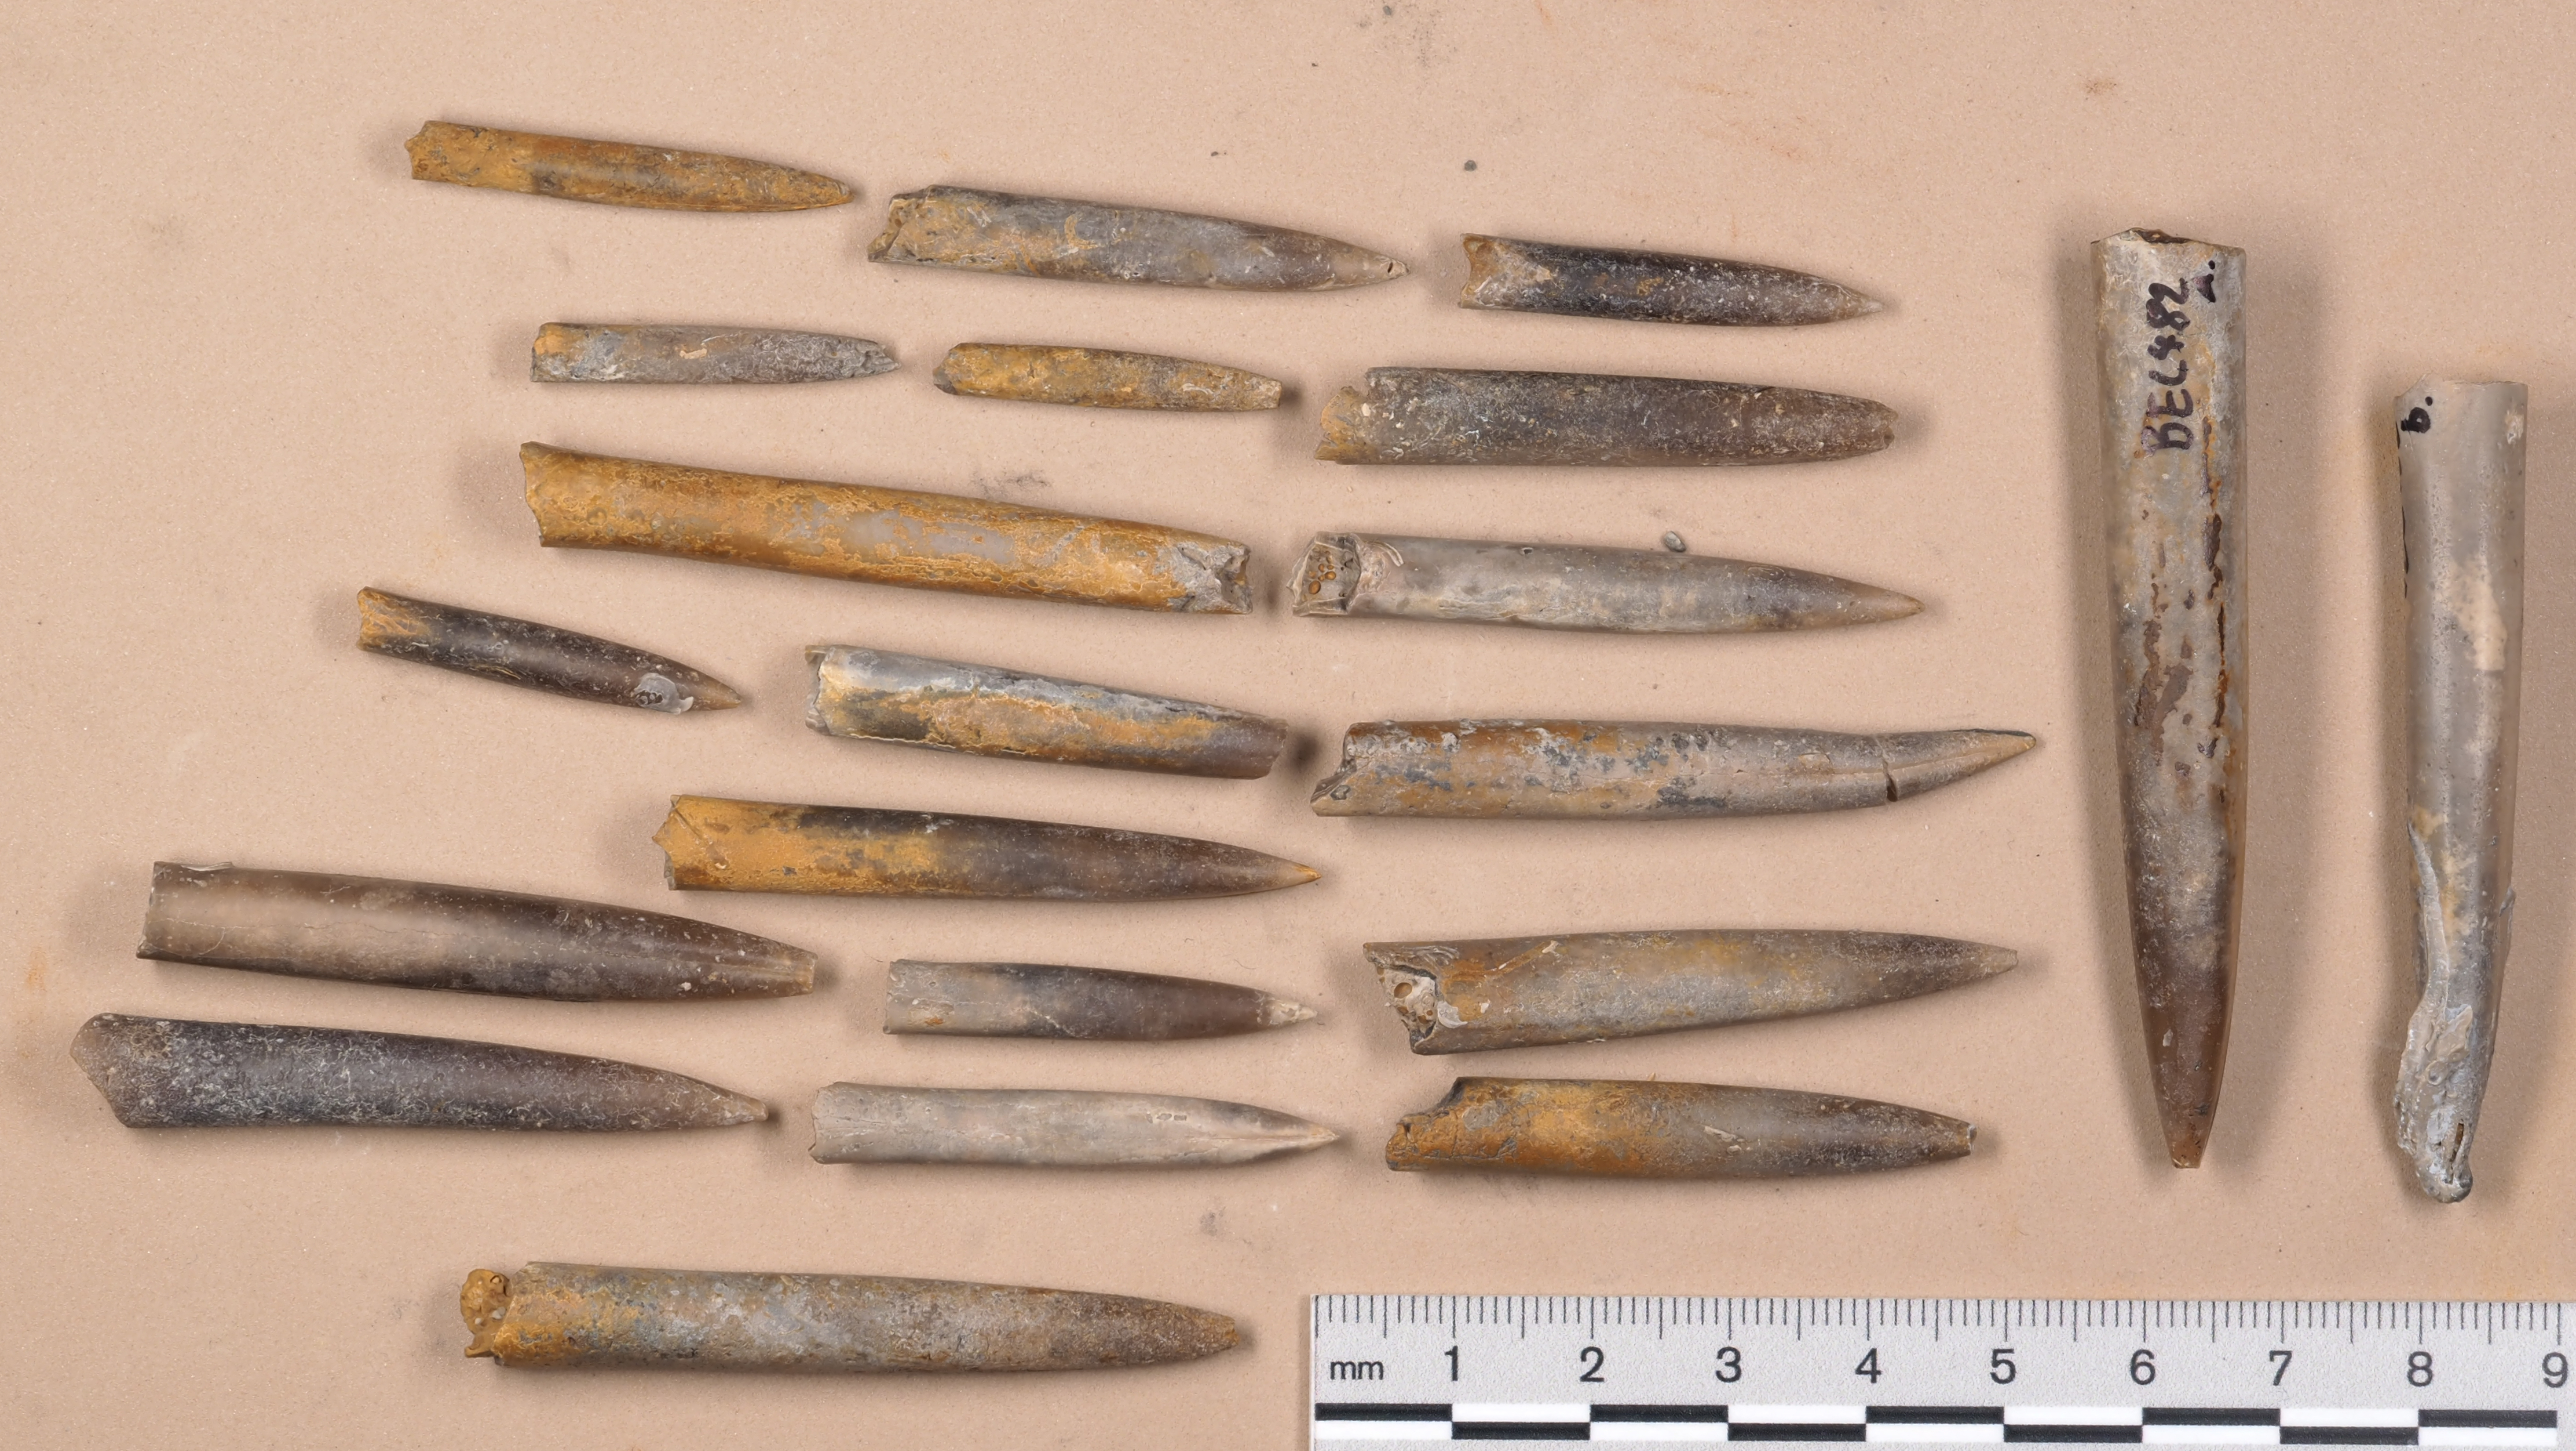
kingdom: Animalia
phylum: Mollusca
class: Cephalopoda
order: Belemnitida
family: Megateuthididae
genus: Acrocoelites
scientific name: Acrocoelites
